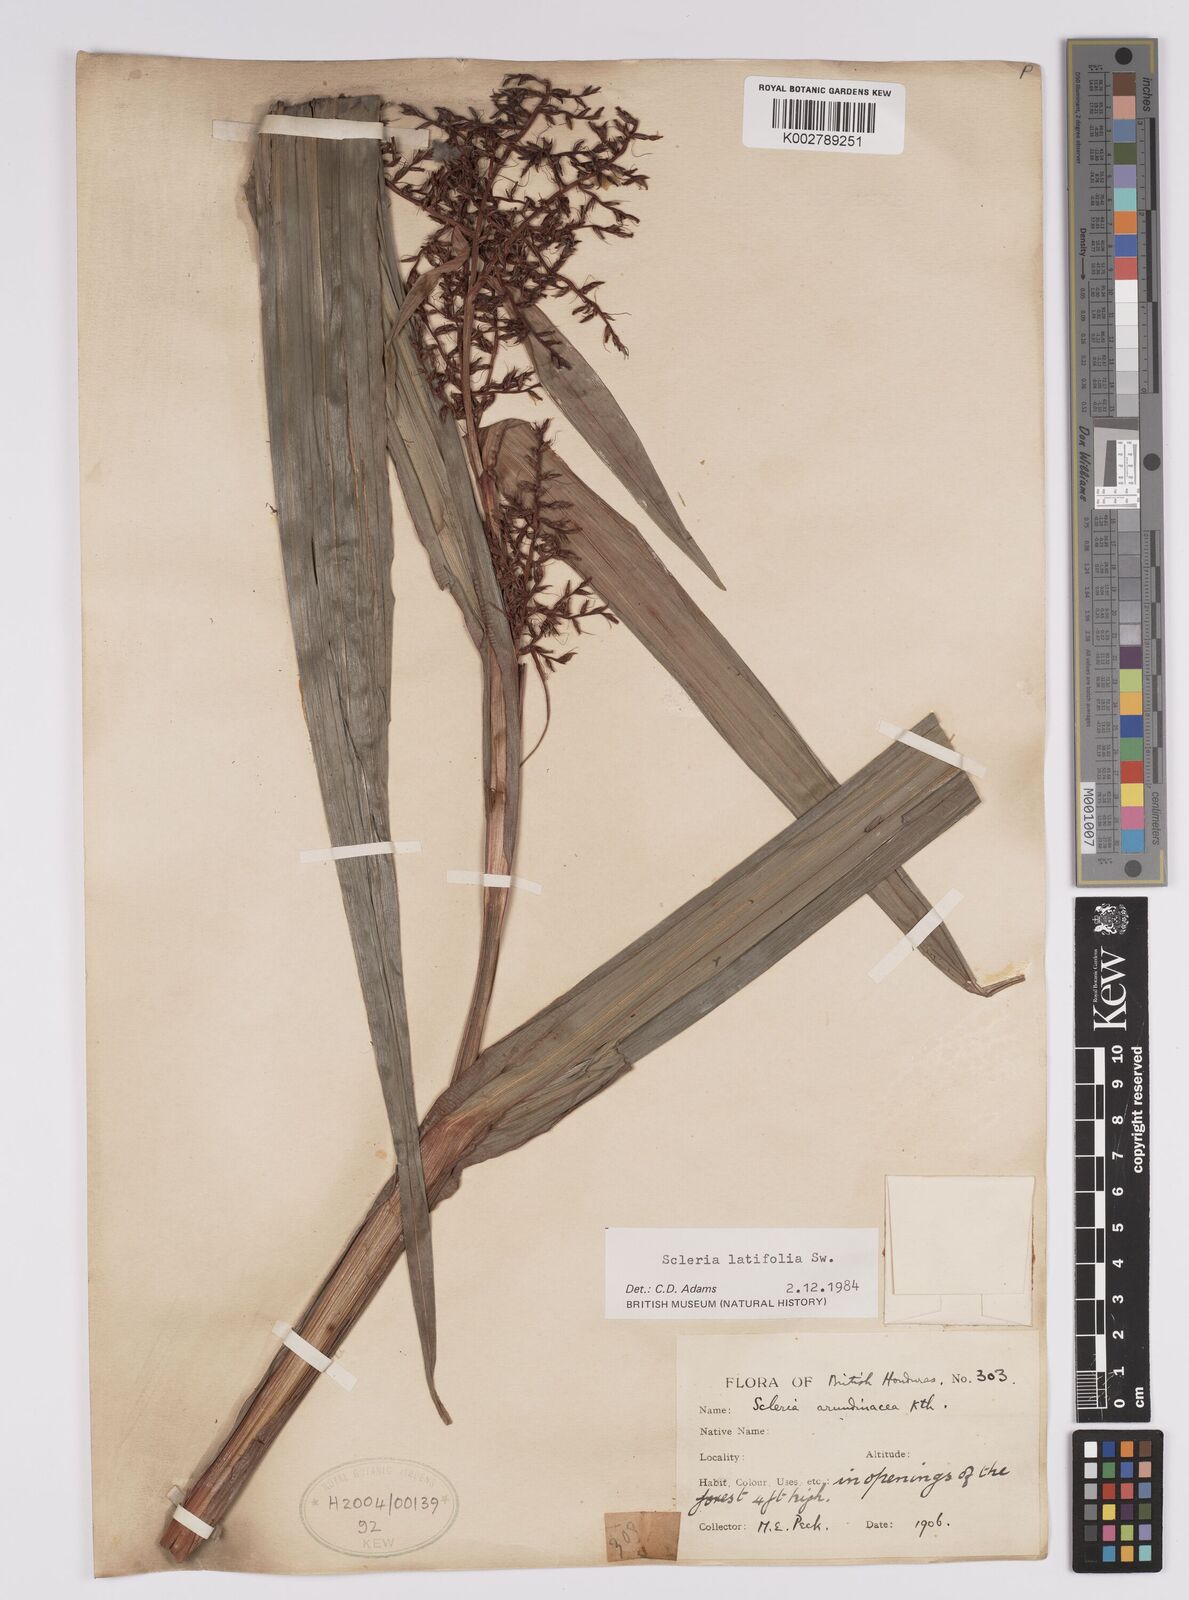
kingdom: Plantae
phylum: Tracheophyta
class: Liliopsida
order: Poales
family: Cyperaceae
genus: Scleria
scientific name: Scleria latifolia
